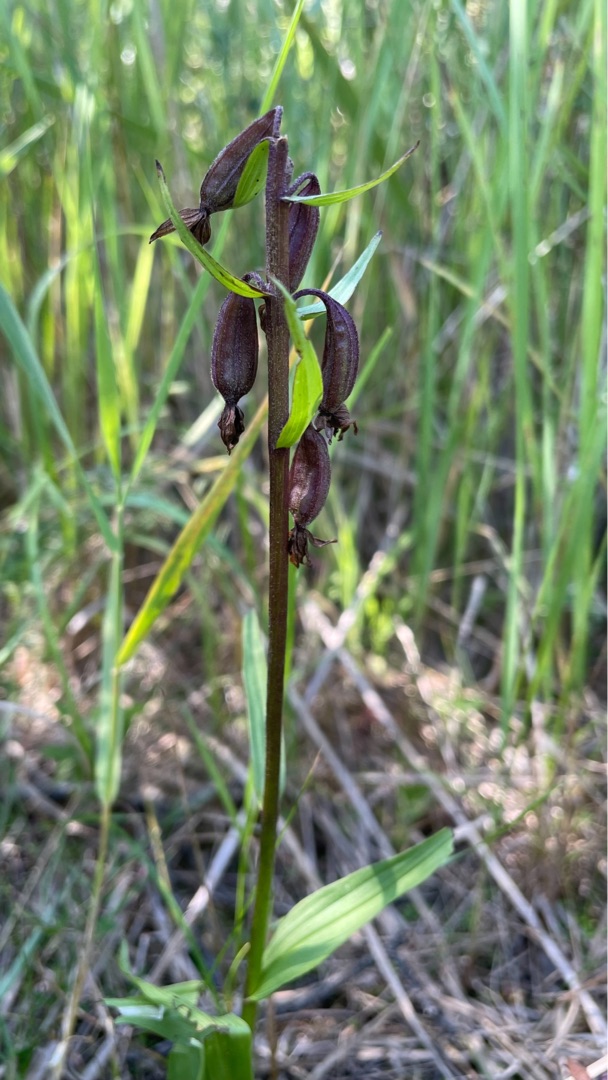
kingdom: Plantae
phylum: Tracheophyta
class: Liliopsida
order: Asparagales
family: Orchidaceae
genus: Epipactis
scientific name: Epipactis palustris
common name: Sump-hullæbe
